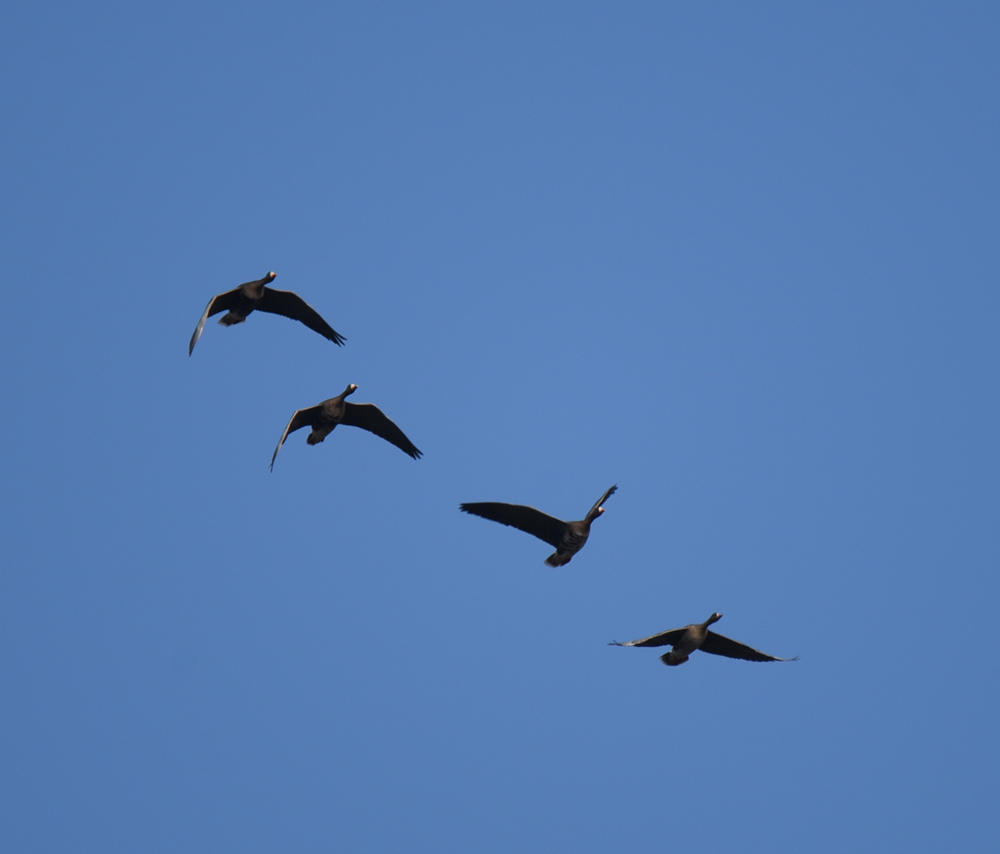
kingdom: Animalia
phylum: Chordata
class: Aves
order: Anseriformes
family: Anatidae
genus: Anser
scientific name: Anser albifrons
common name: Greater white-fronted goose
